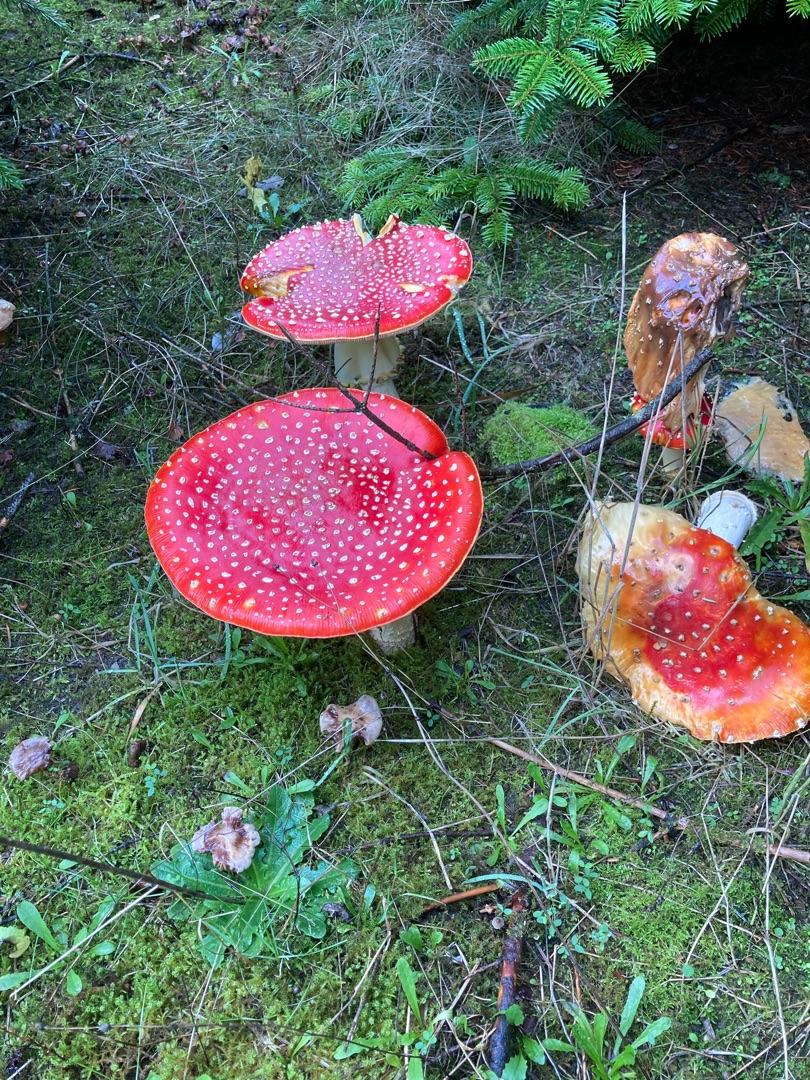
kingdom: Fungi
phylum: Basidiomycota
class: Agaricomycetes
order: Agaricales
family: Amanitaceae
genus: Amanita
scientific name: Amanita muscaria
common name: Rød fluesvamp
